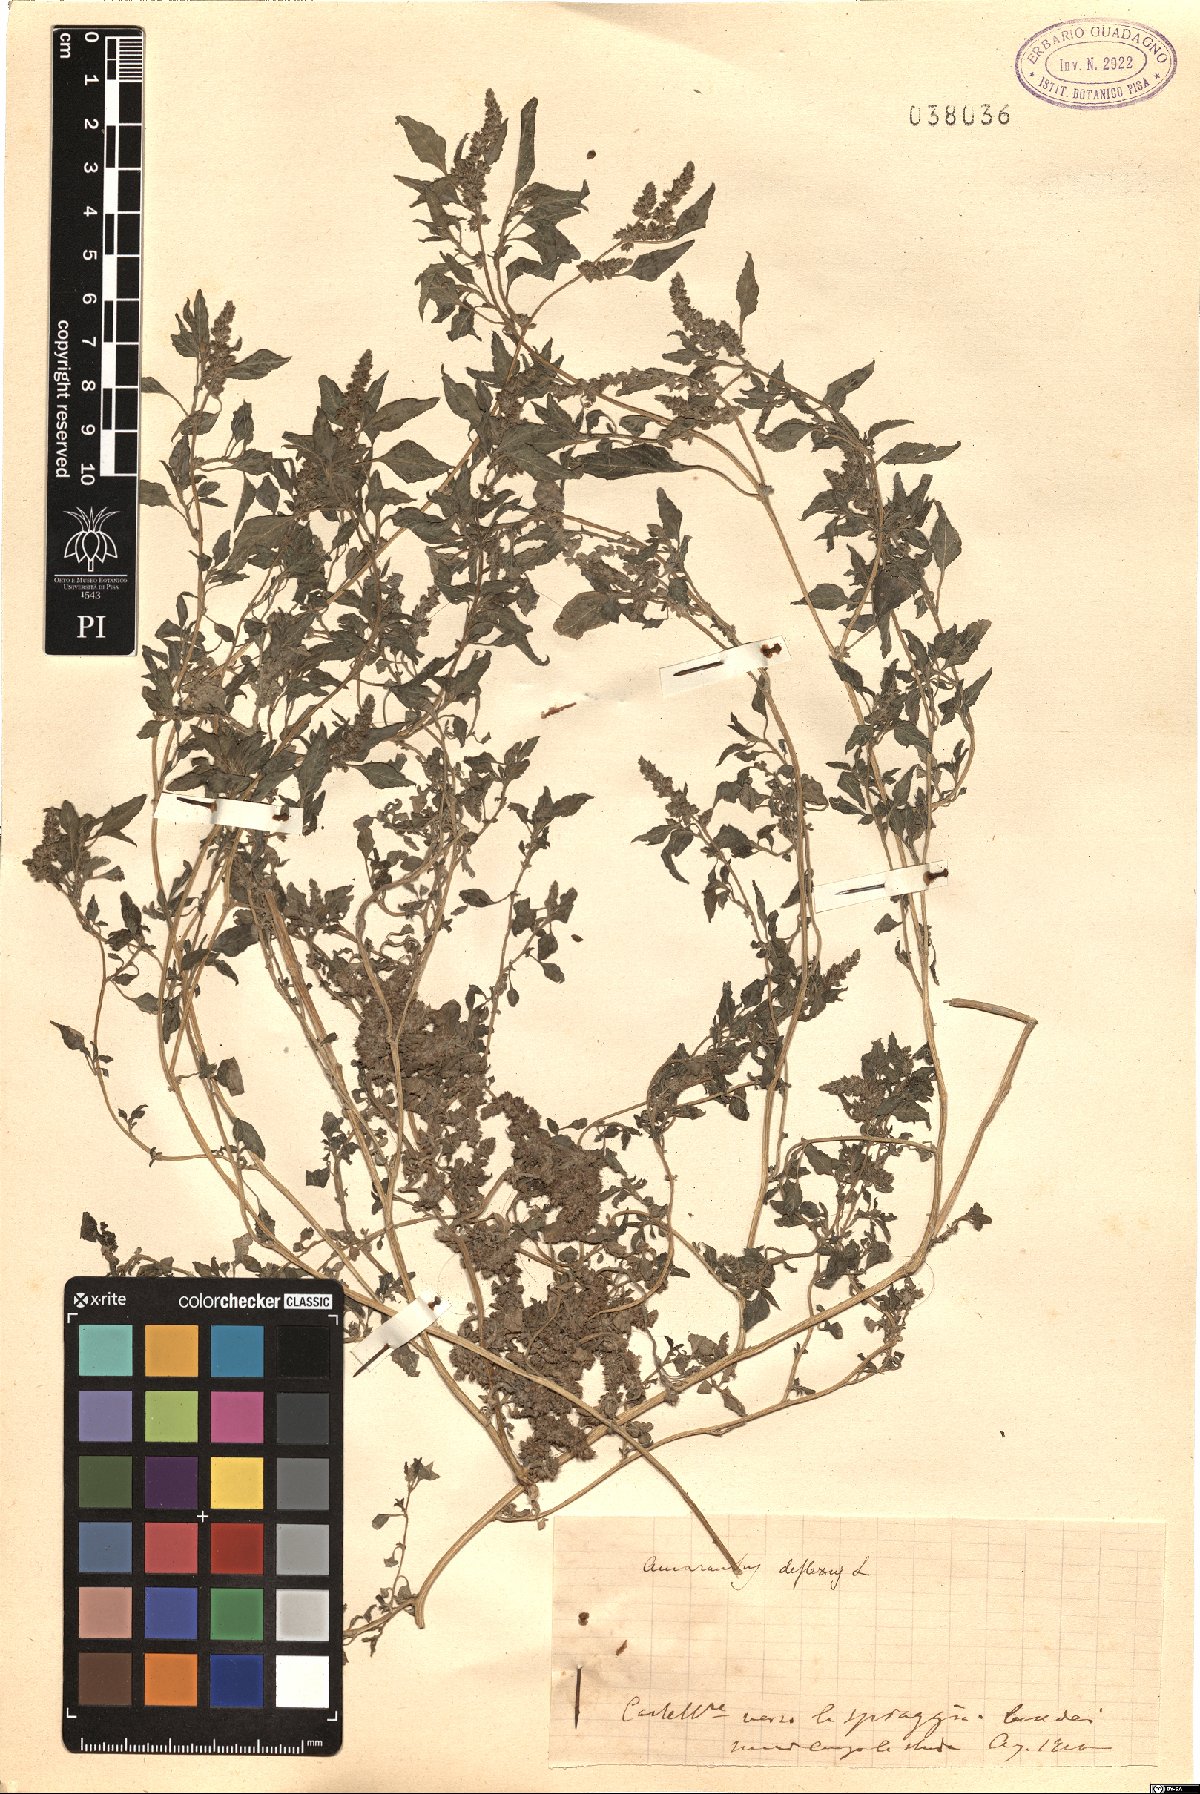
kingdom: Plantae
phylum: Tracheophyta
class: Magnoliopsida
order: Caryophyllales
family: Amaranthaceae
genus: Amaranthus
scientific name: Amaranthus deflexus
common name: Perennial pigweed
